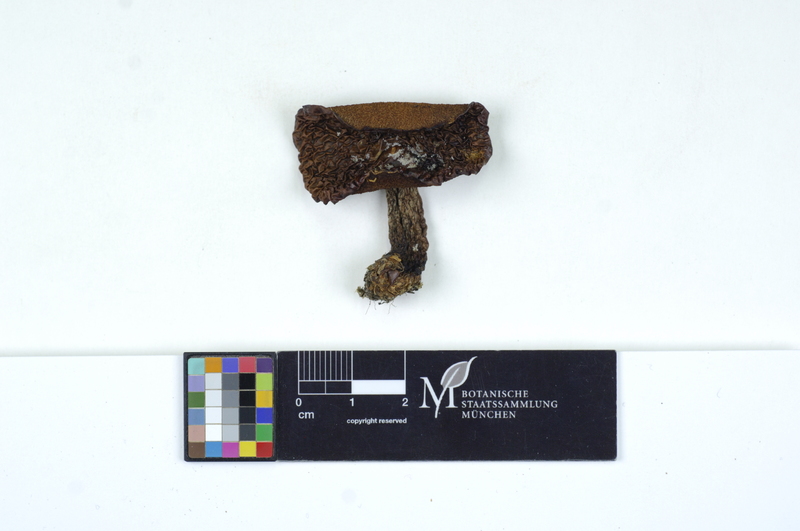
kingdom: Fungi
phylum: Basidiomycota
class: Agaricomycetes
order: Boletales
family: Suillaceae
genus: Suillus
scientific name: Suillus granulatus
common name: Weeping bolete
